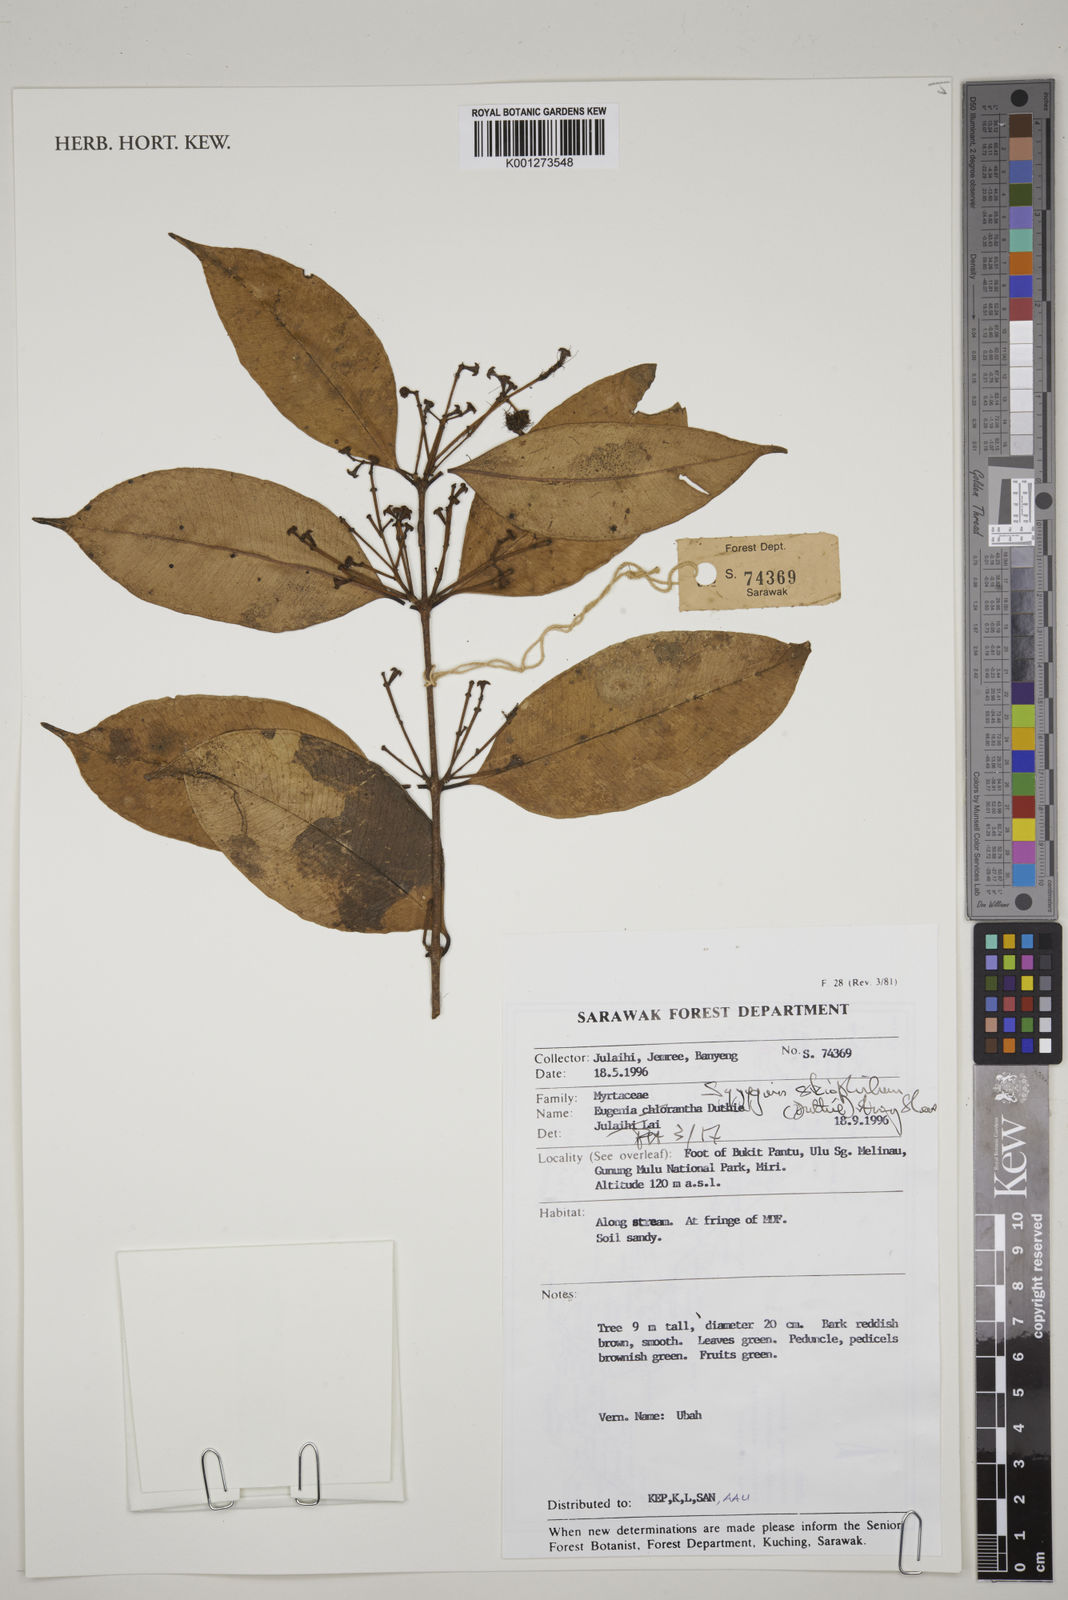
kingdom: Plantae
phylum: Tracheophyta
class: Magnoliopsida
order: Myrtales
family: Myrtaceae
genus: Syzygium
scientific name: Syzygium skiophilum
